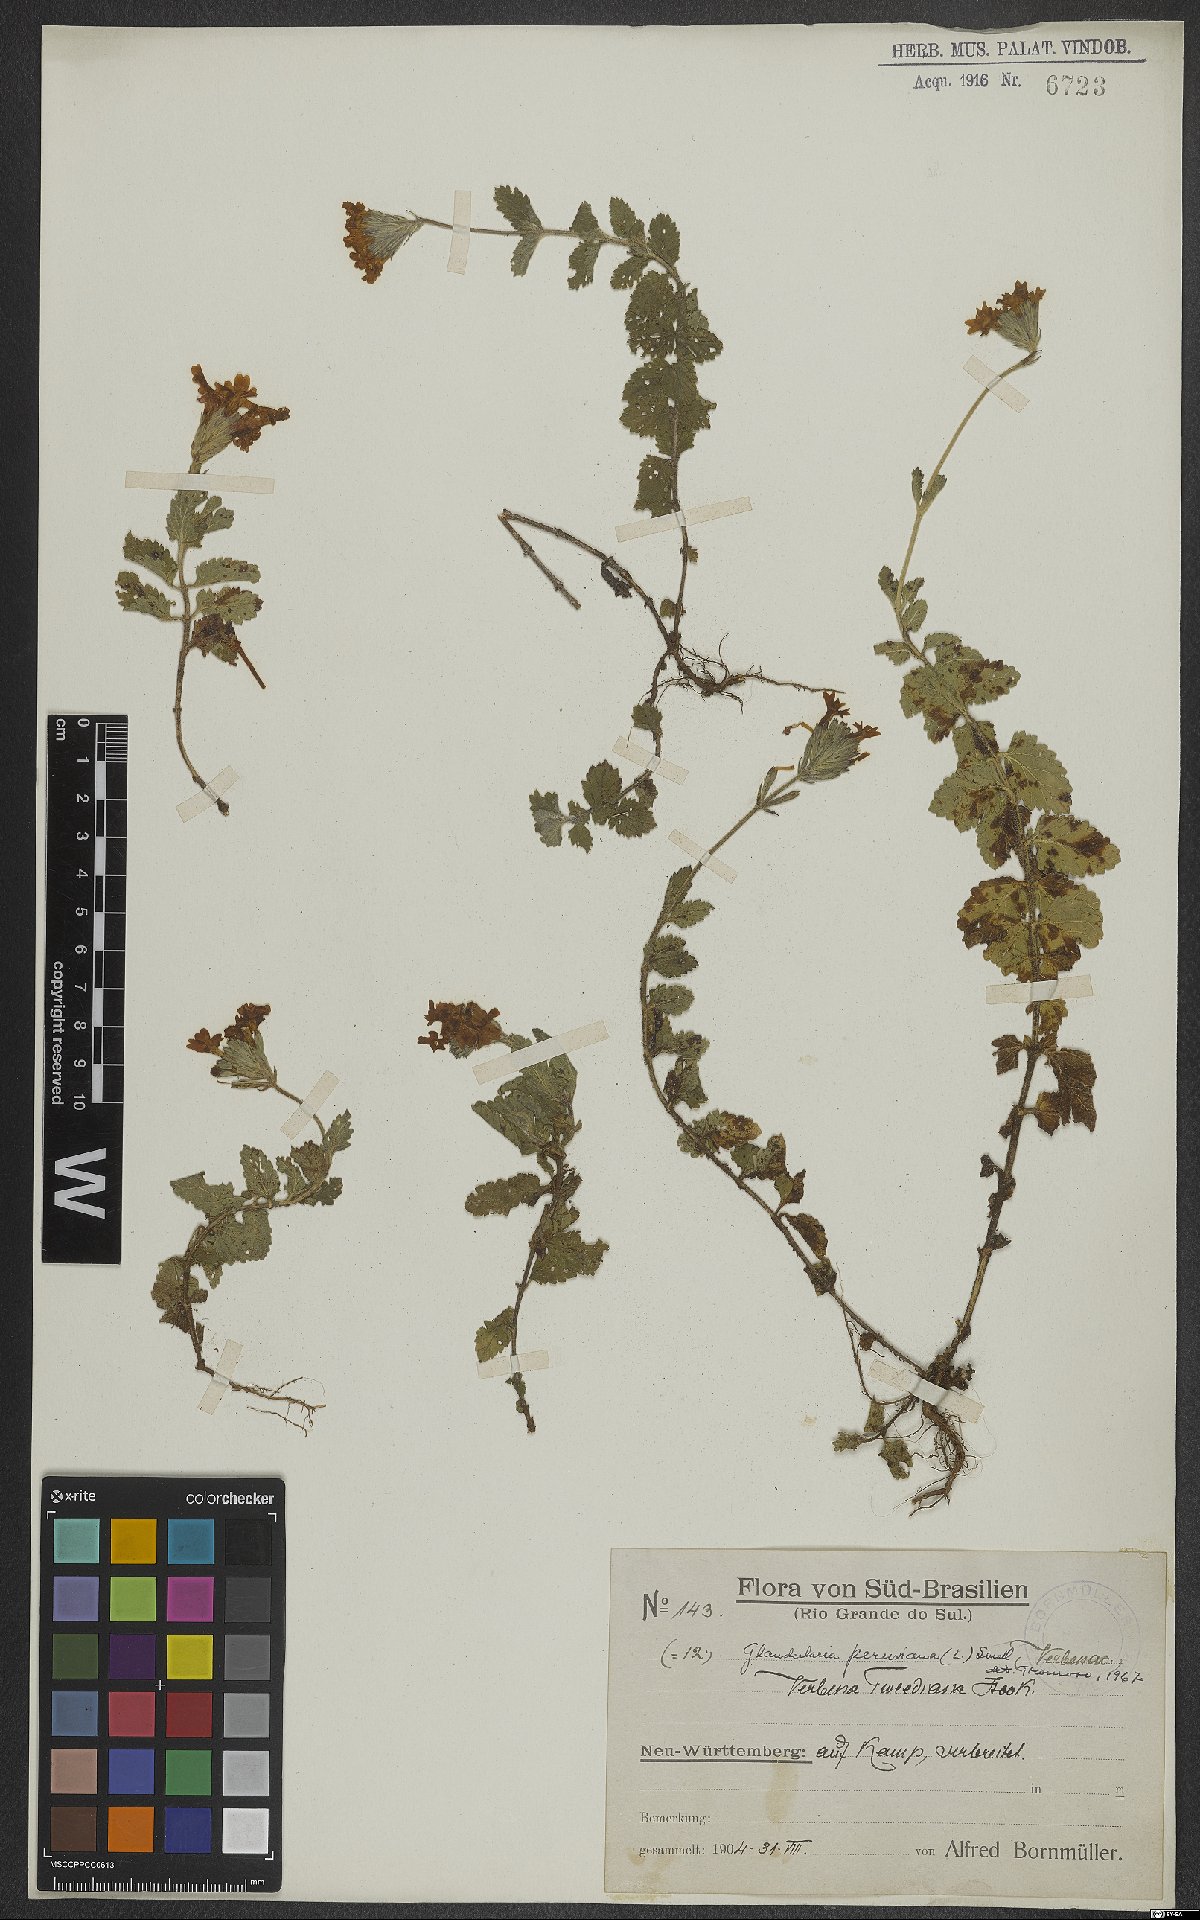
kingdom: Plantae
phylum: Tracheophyta
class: Magnoliopsida
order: Lamiales
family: Verbenaceae
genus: Verbena
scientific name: Verbena peruviana
